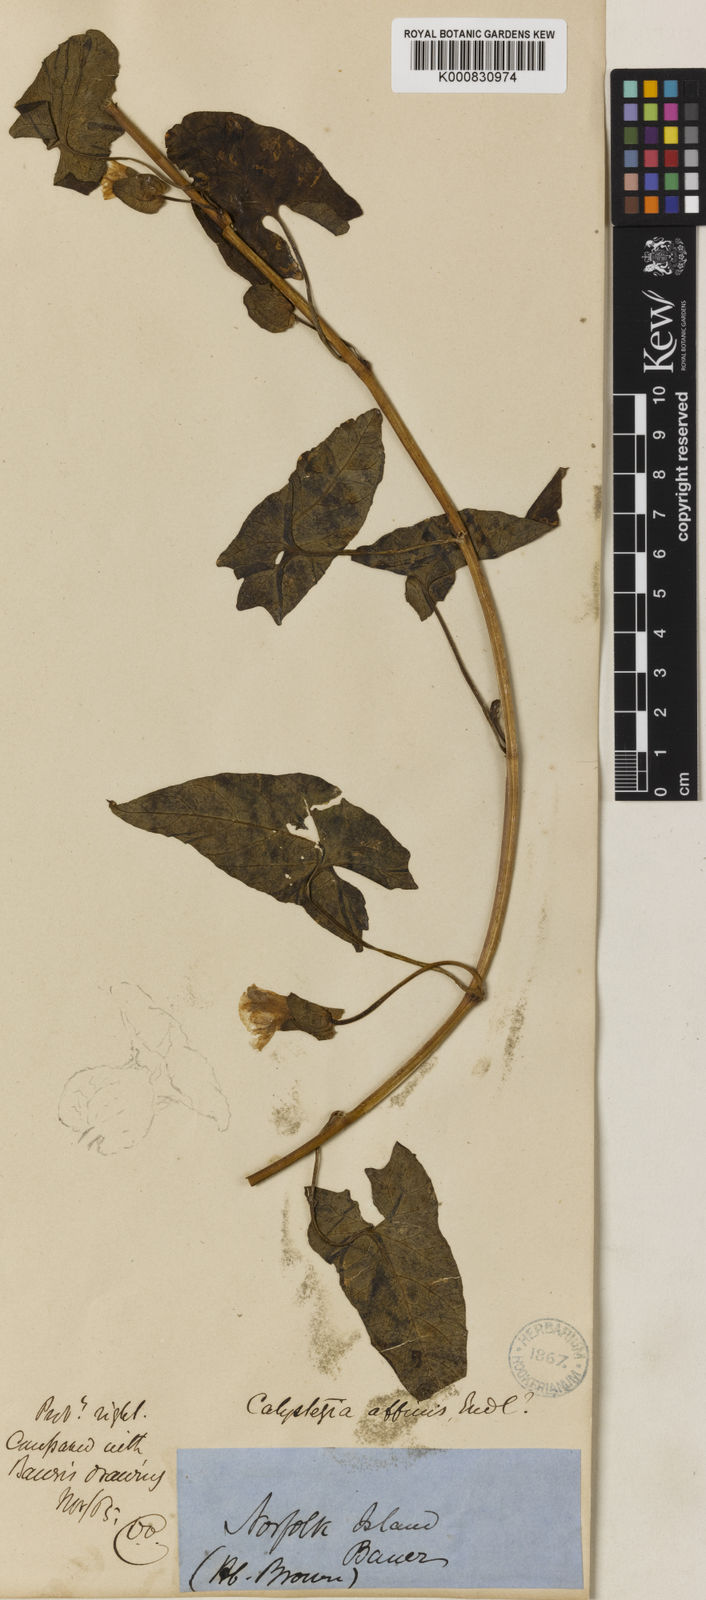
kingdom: Plantae
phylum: Tracheophyta
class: Magnoliopsida
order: Solanales
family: Convolvulaceae
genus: Calystegia
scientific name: Calystegia affinis
